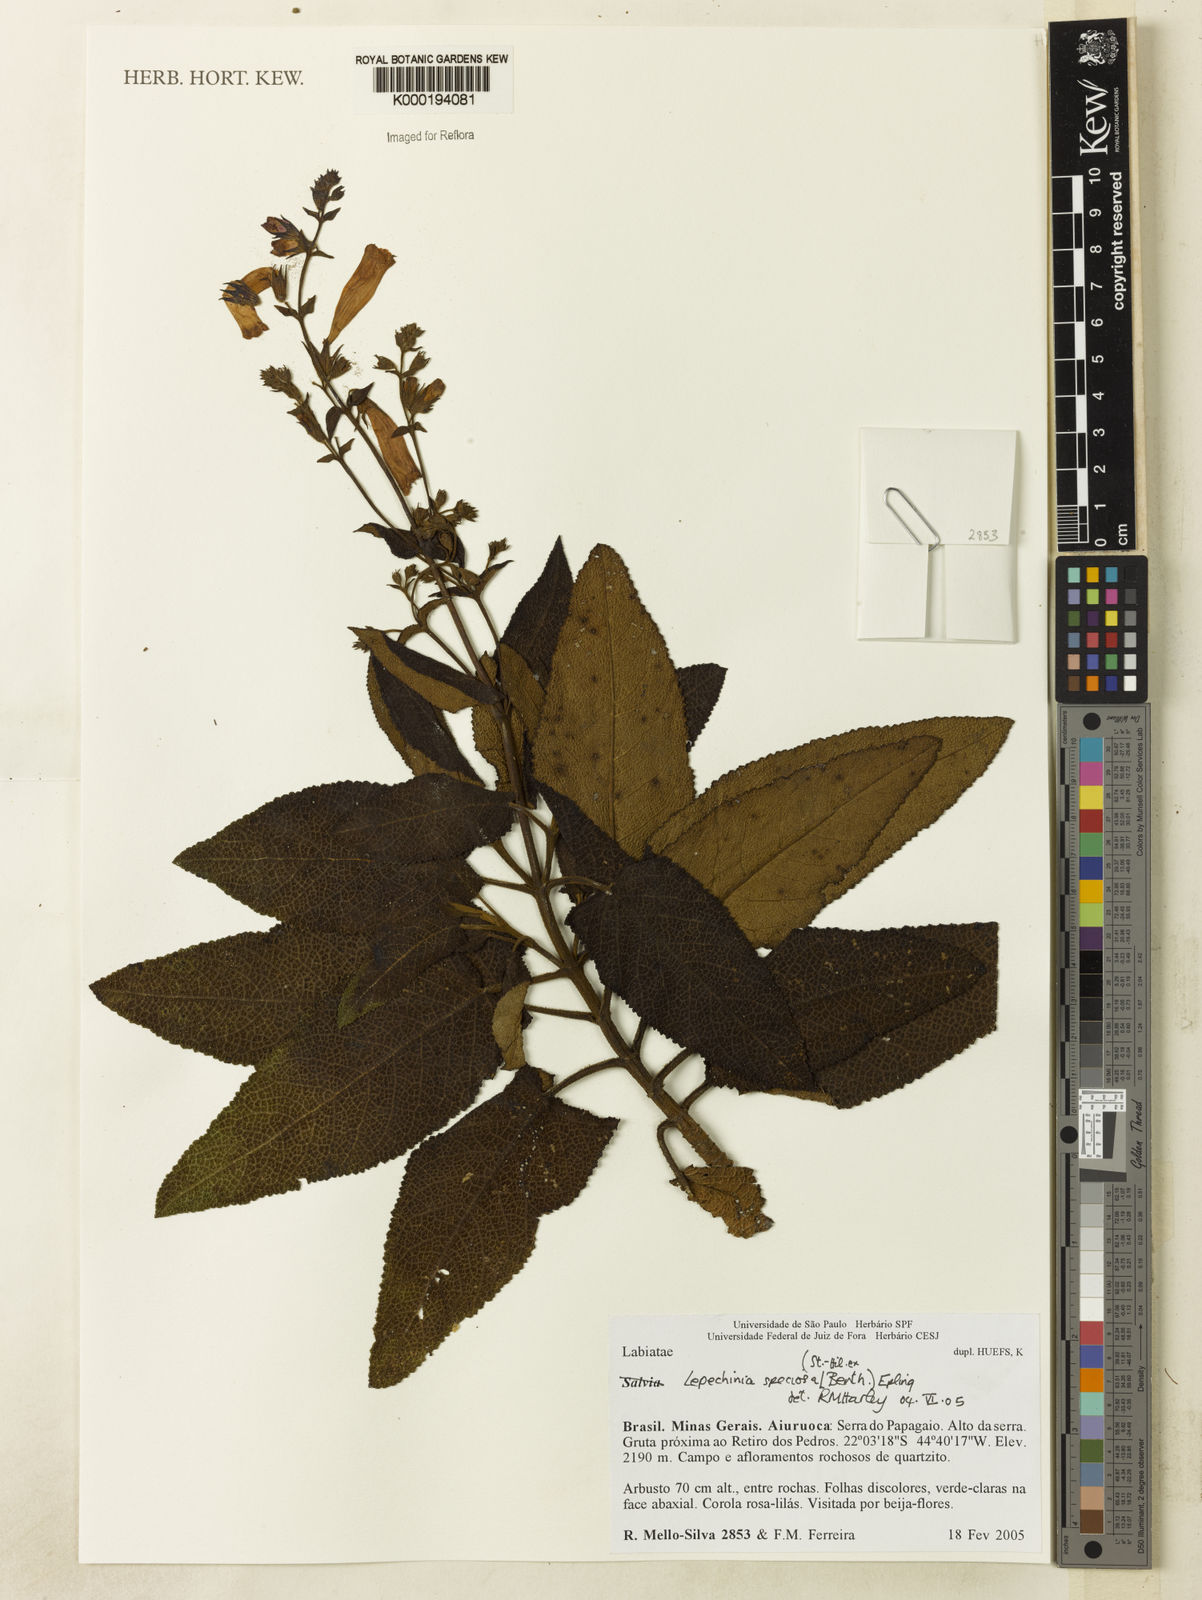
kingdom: Plantae
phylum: Tracheophyta
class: Magnoliopsida
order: Lamiales
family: Lamiaceae
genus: Lepechinia
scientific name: Lepechinia speciosa
